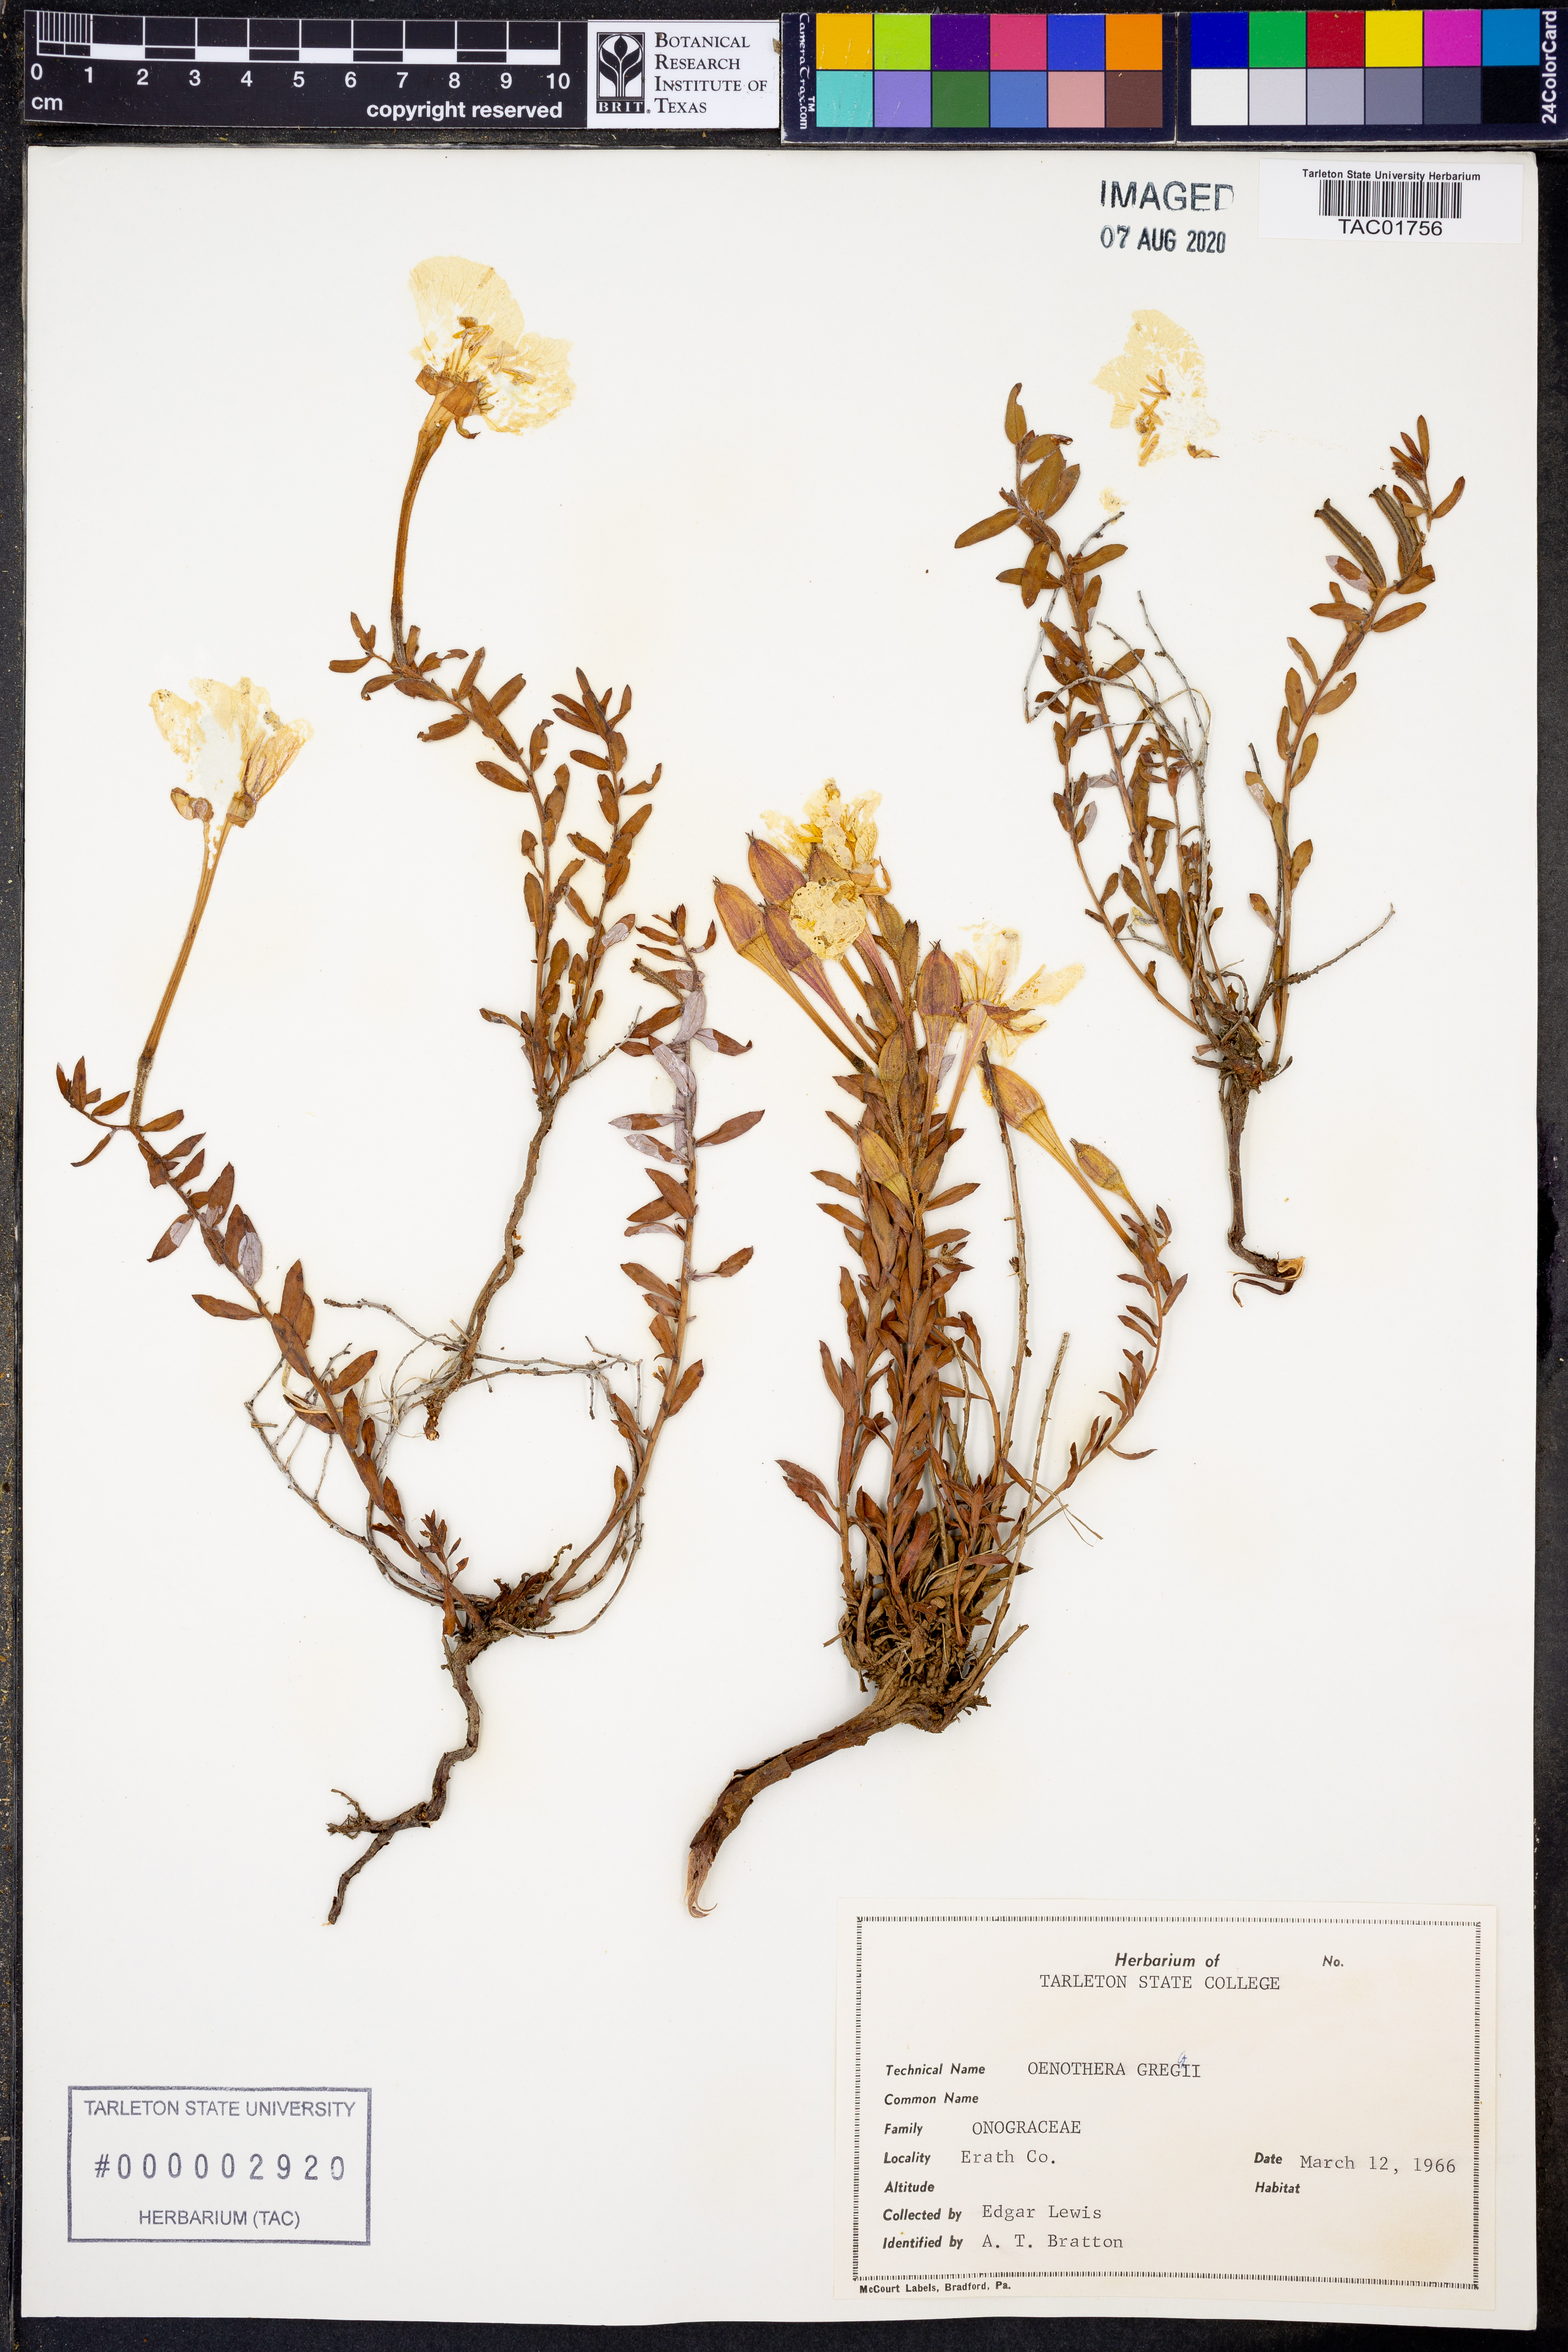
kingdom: Plantae
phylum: Tracheophyta
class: Magnoliopsida
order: Myrtales
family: Onagraceae
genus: Oenothera
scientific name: Oenothera hartwegii
